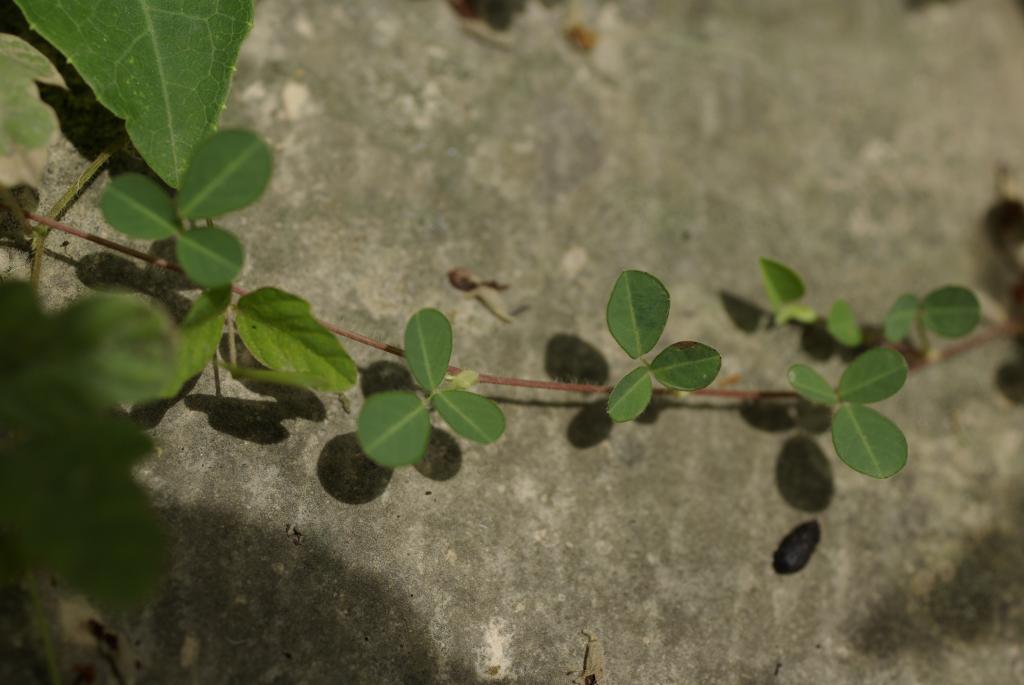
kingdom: Plantae
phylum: Tracheophyta
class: Magnoliopsida
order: Fabales
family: Fabaceae
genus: Grona
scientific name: Grona heterophylla
